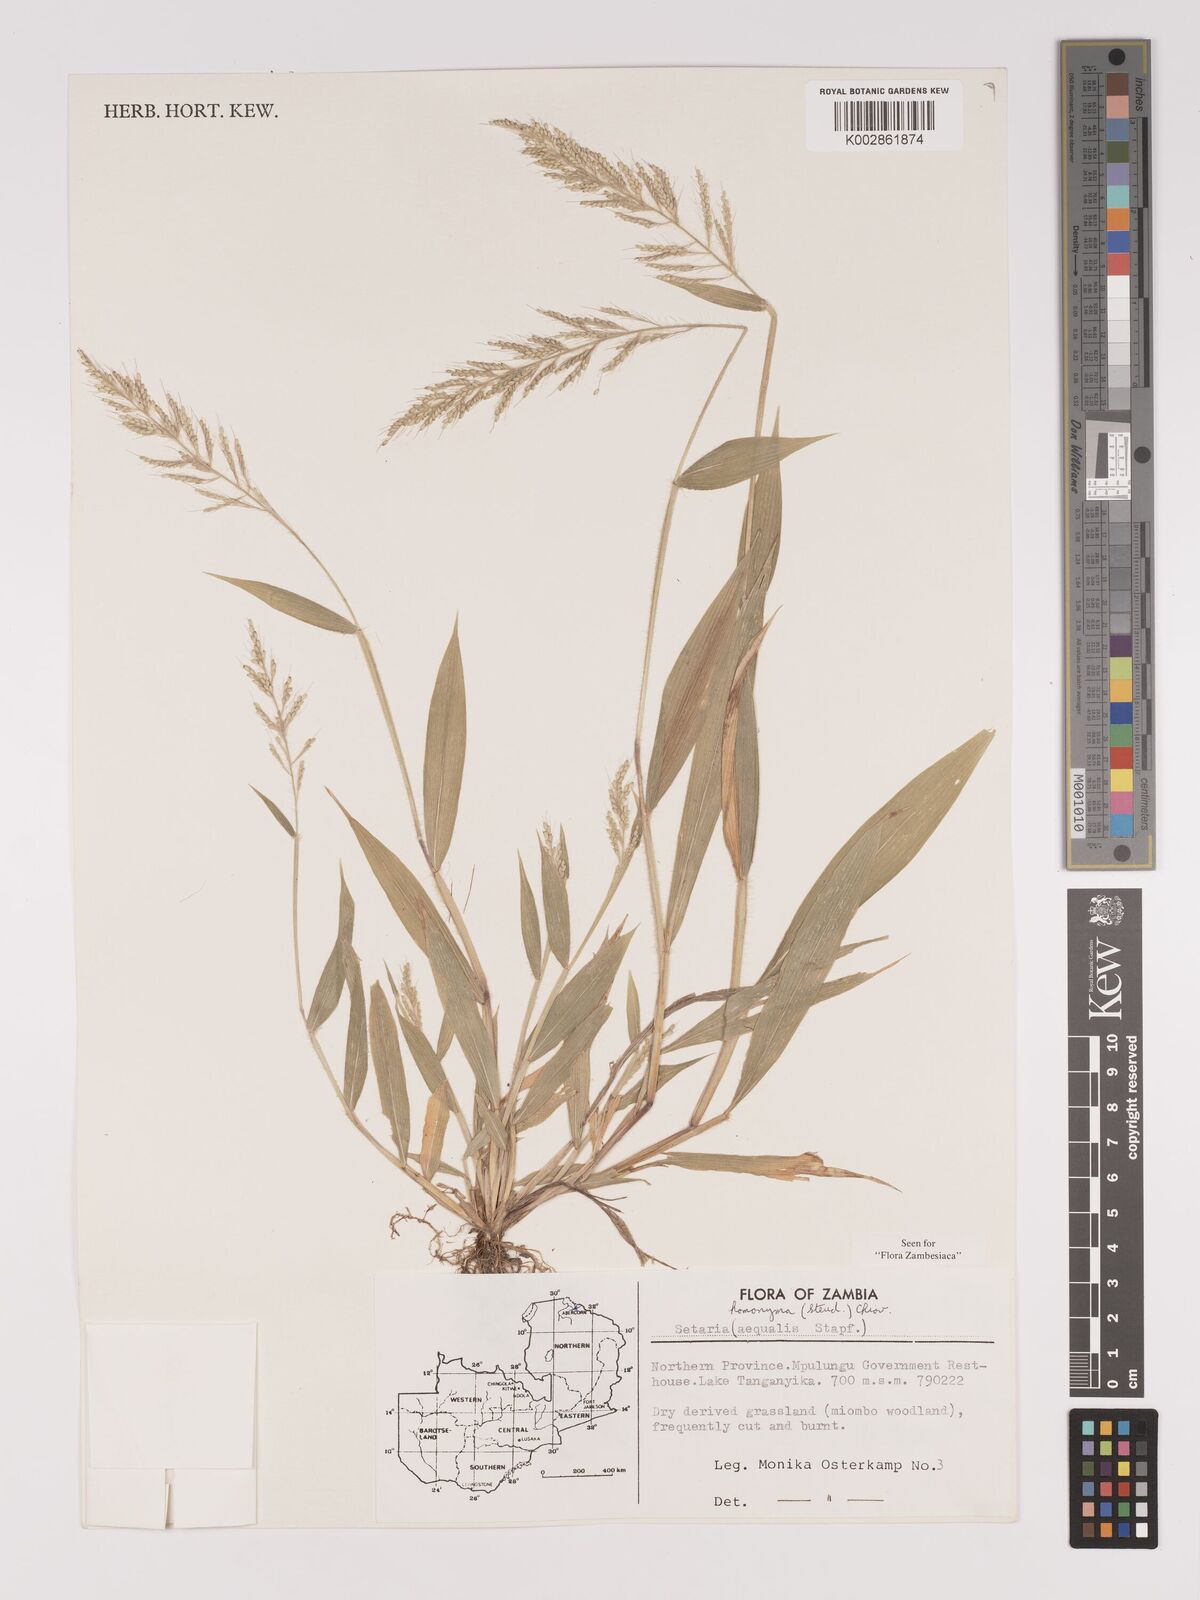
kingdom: Plantae
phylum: Tracheophyta
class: Liliopsida
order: Poales
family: Poaceae
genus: Setaria
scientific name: Setaria homonyma
